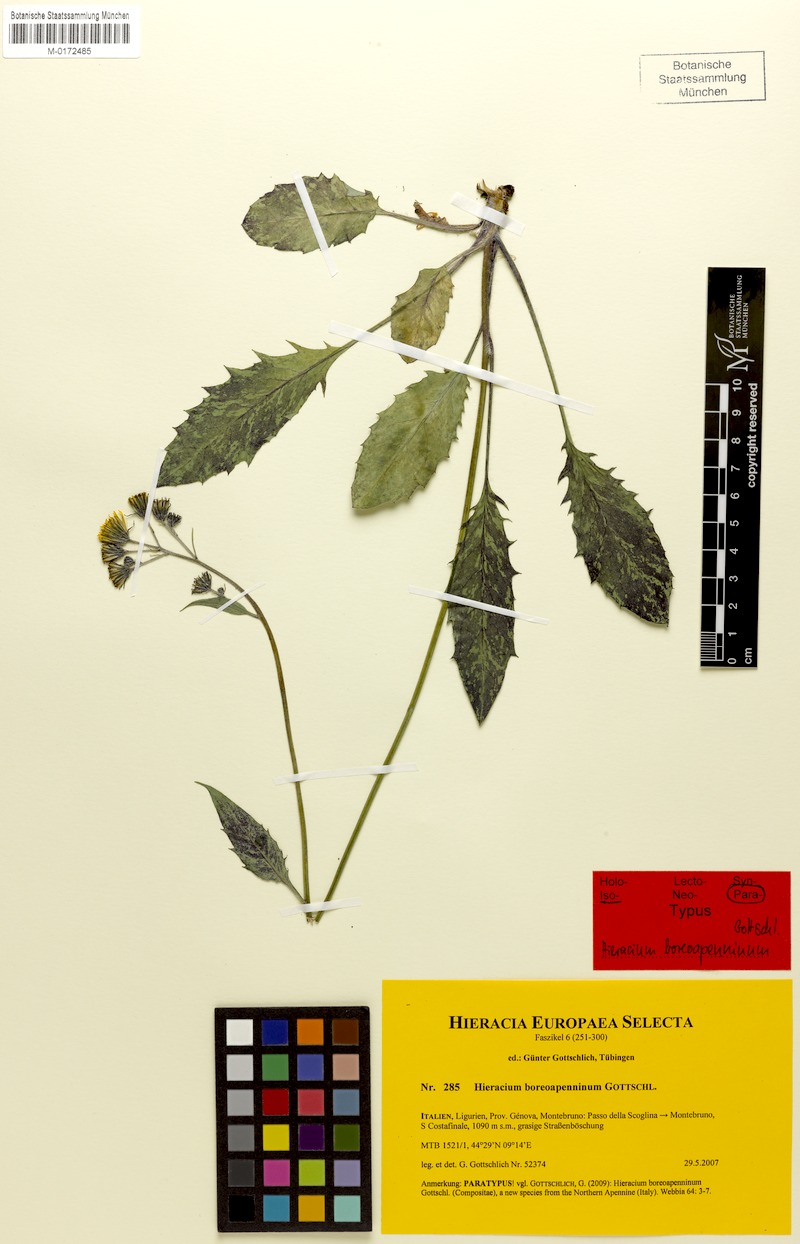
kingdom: Plantae
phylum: Tracheophyta
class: Magnoliopsida
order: Asterales
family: Asteraceae
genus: Hieracium
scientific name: Hieracium boreoapenninum
